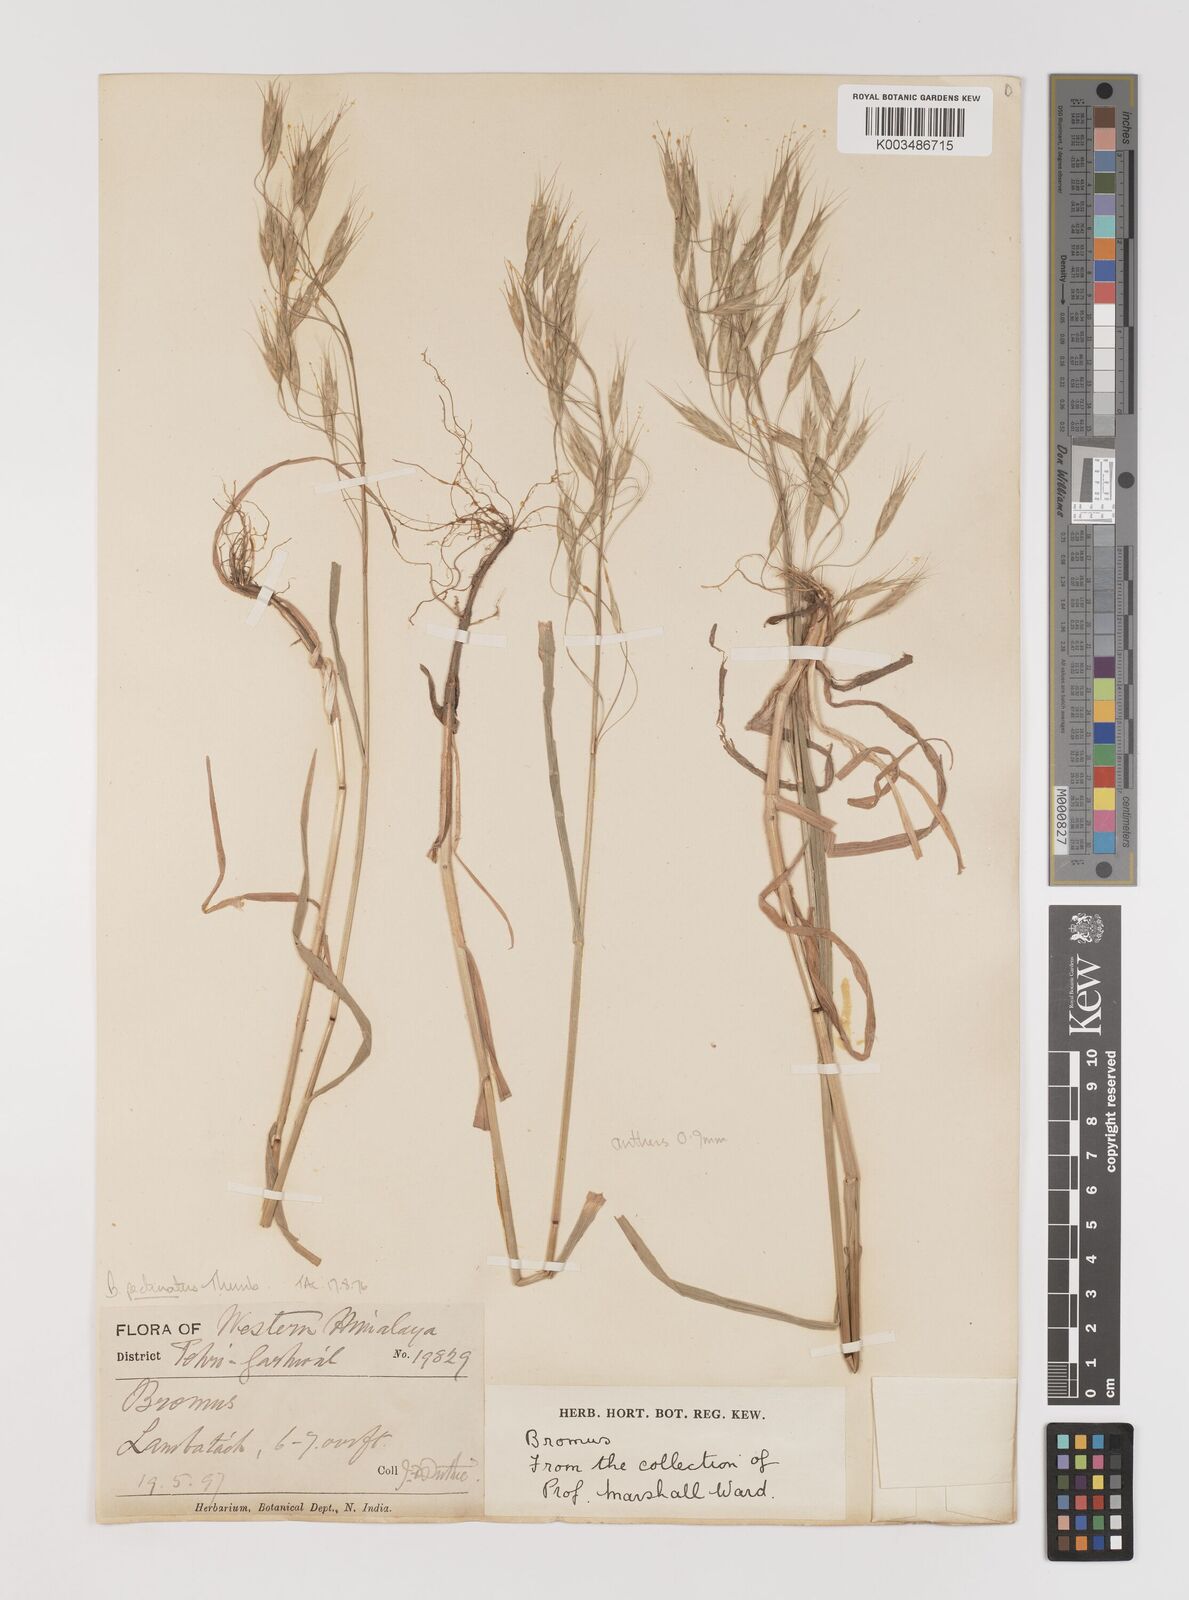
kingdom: Plantae
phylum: Tracheophyta
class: Liliopsida
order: Poales
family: Poaceae
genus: Bromus
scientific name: Bromus pectinatus
